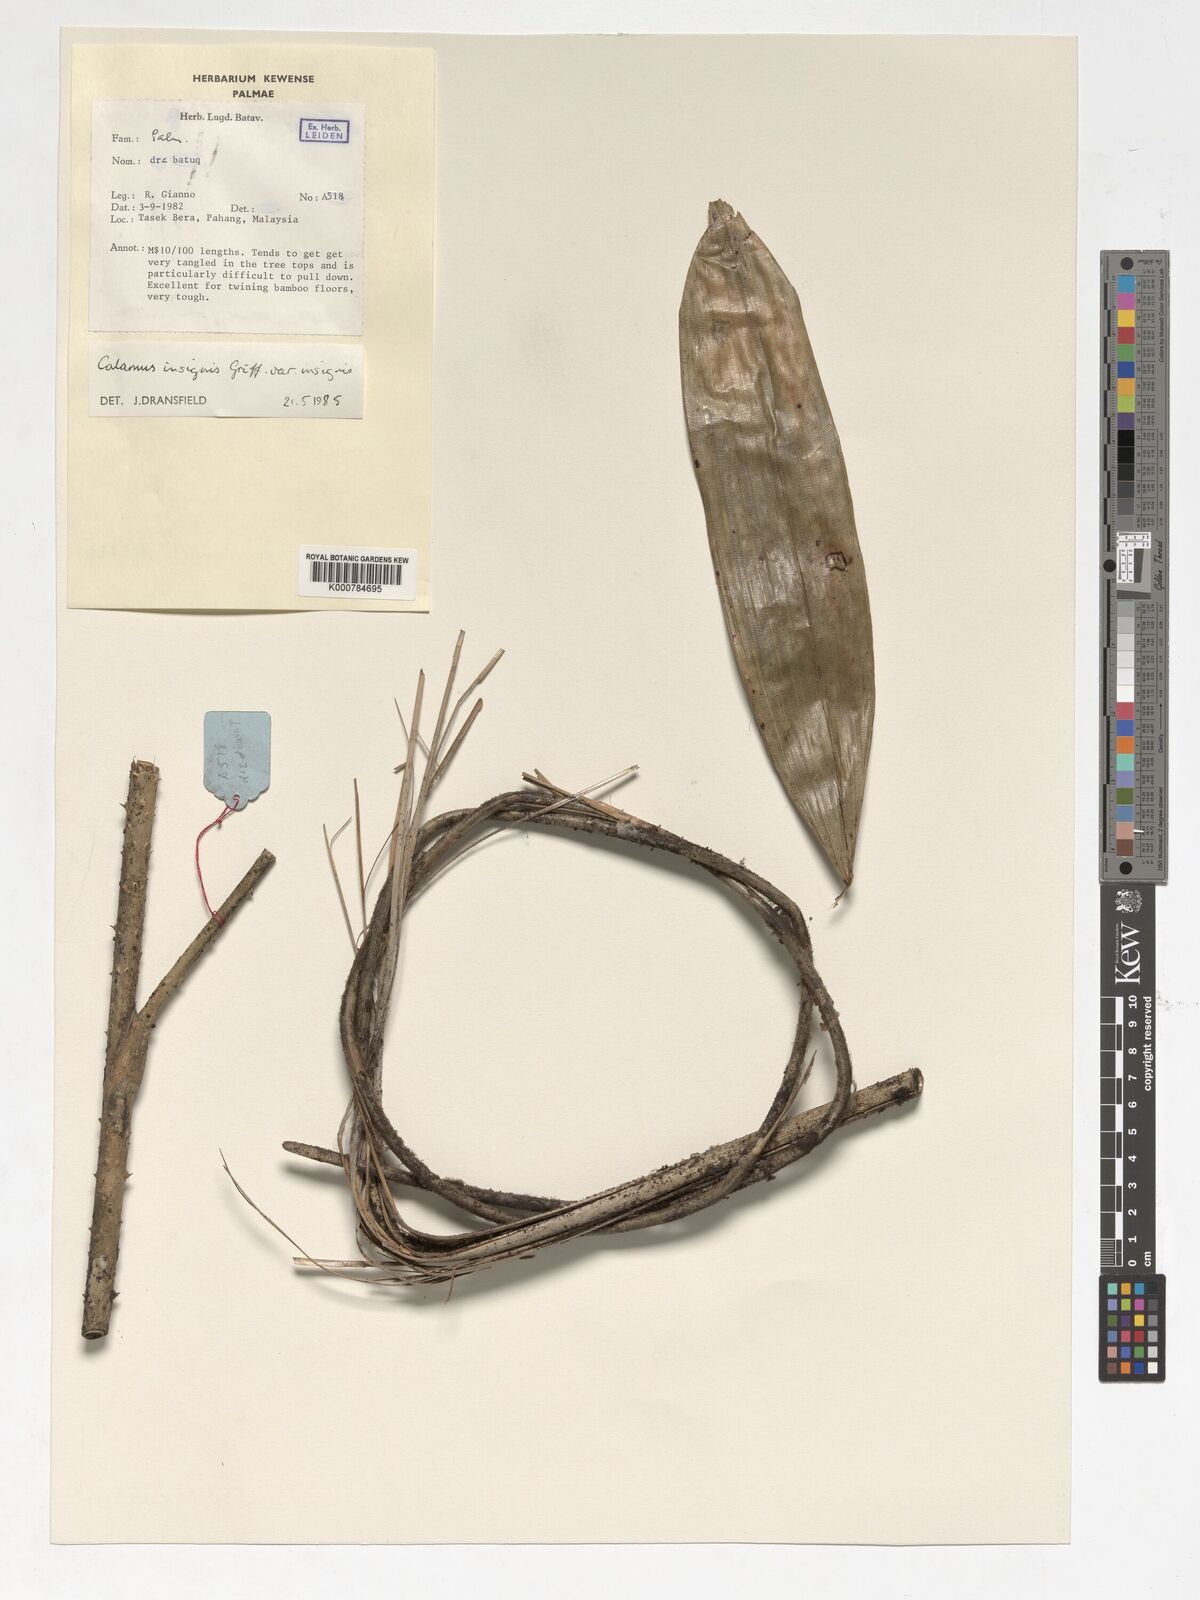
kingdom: Plantae
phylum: Tracheophyta
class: Liliopsida
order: Arecales
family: Arecaceae
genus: Calamus
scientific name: Calamus insignis
